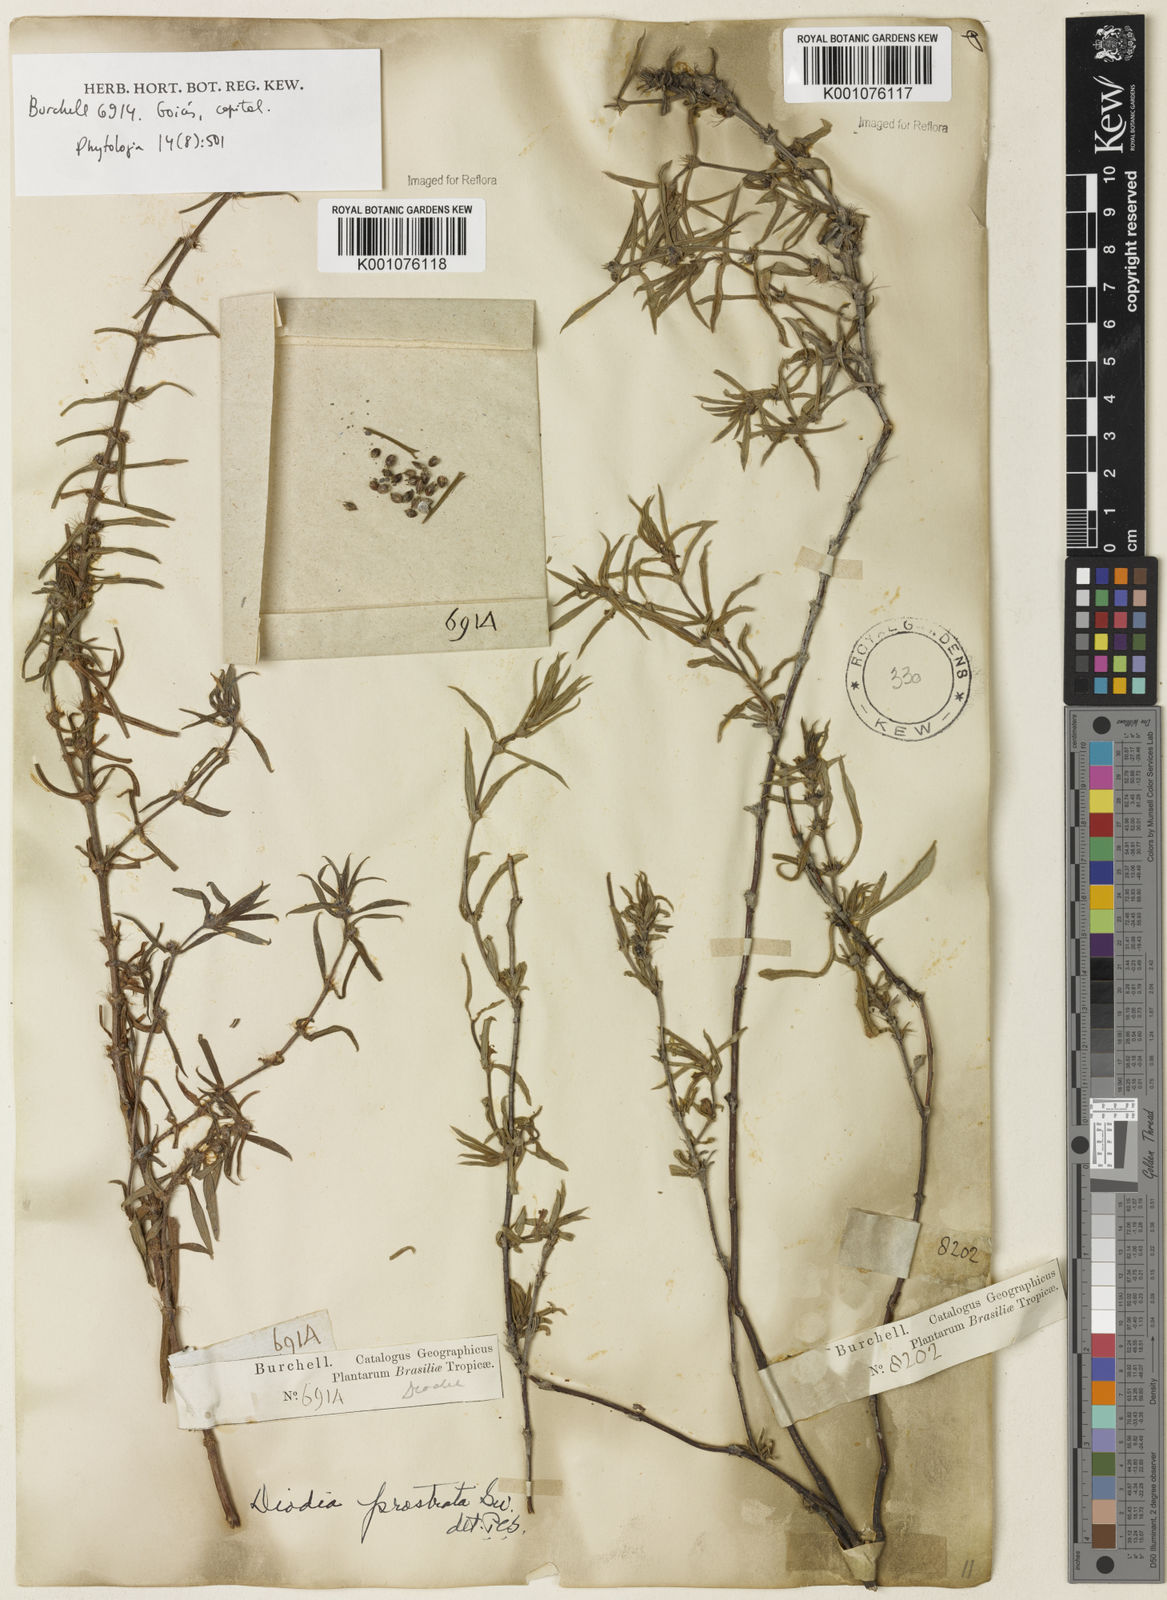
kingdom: Plantae
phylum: Tracheophyta
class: Magnoliopsida
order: Gentianales
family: Rubiaceae
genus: Hexasepalum
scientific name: Hexasepalum teres
